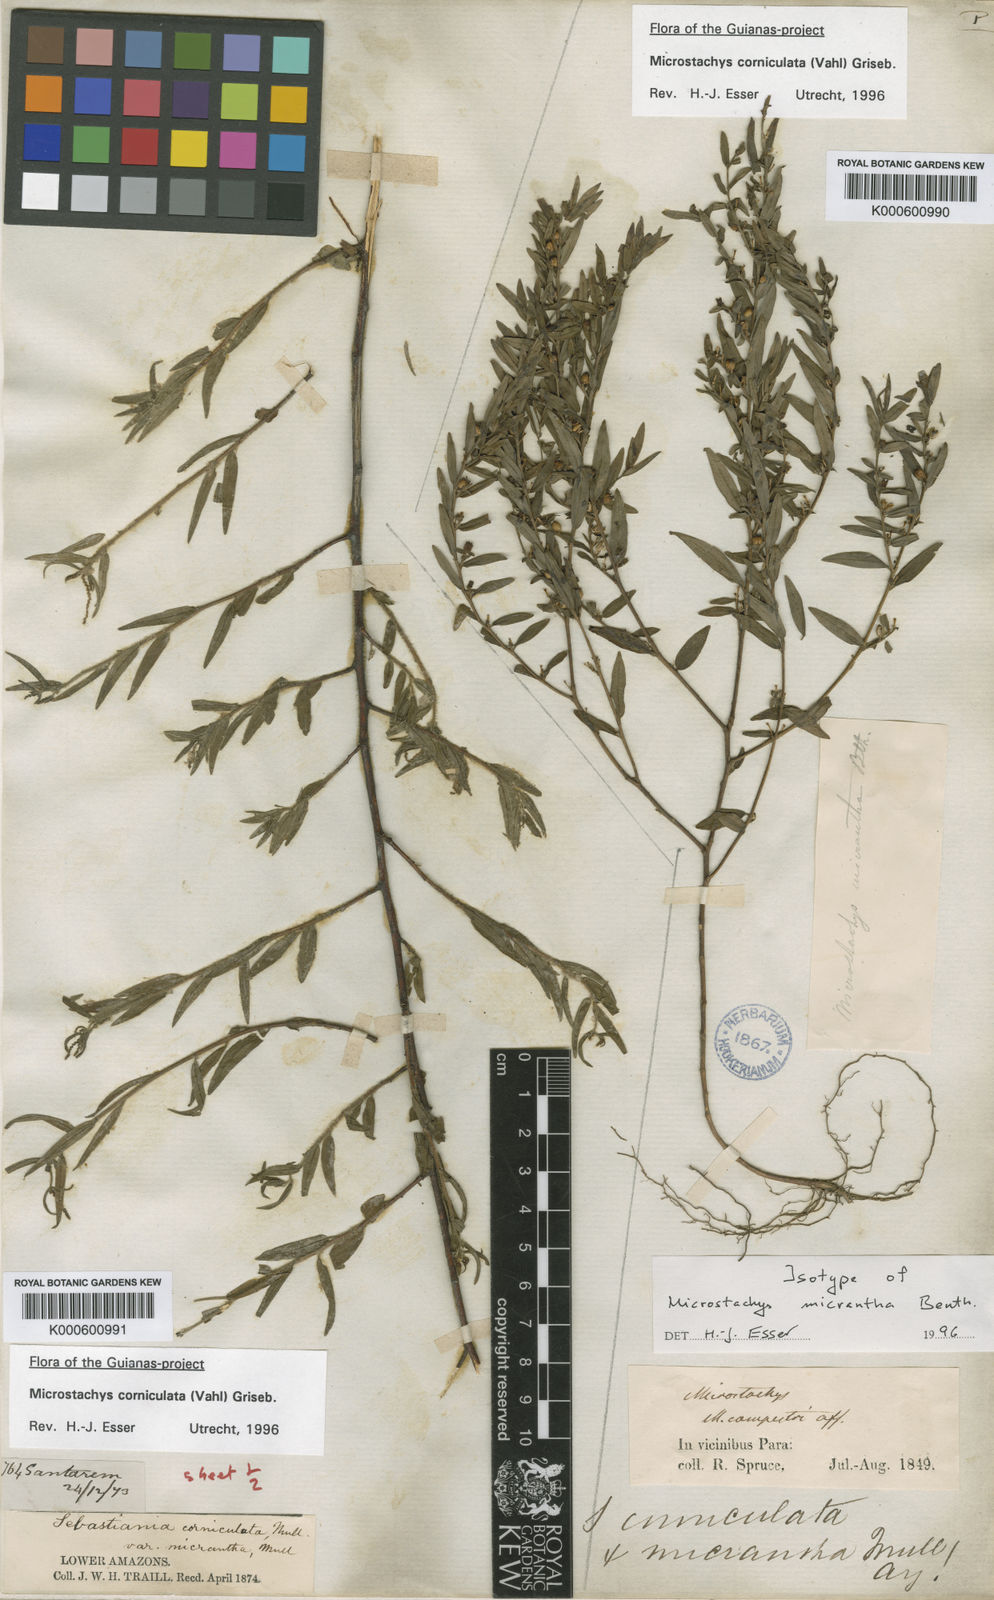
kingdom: Plantae
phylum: Tracheophyta
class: Magnoliopsida
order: Malpighiales
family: Euphorbiaceae
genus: Sebastiania
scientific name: Sebastiania
